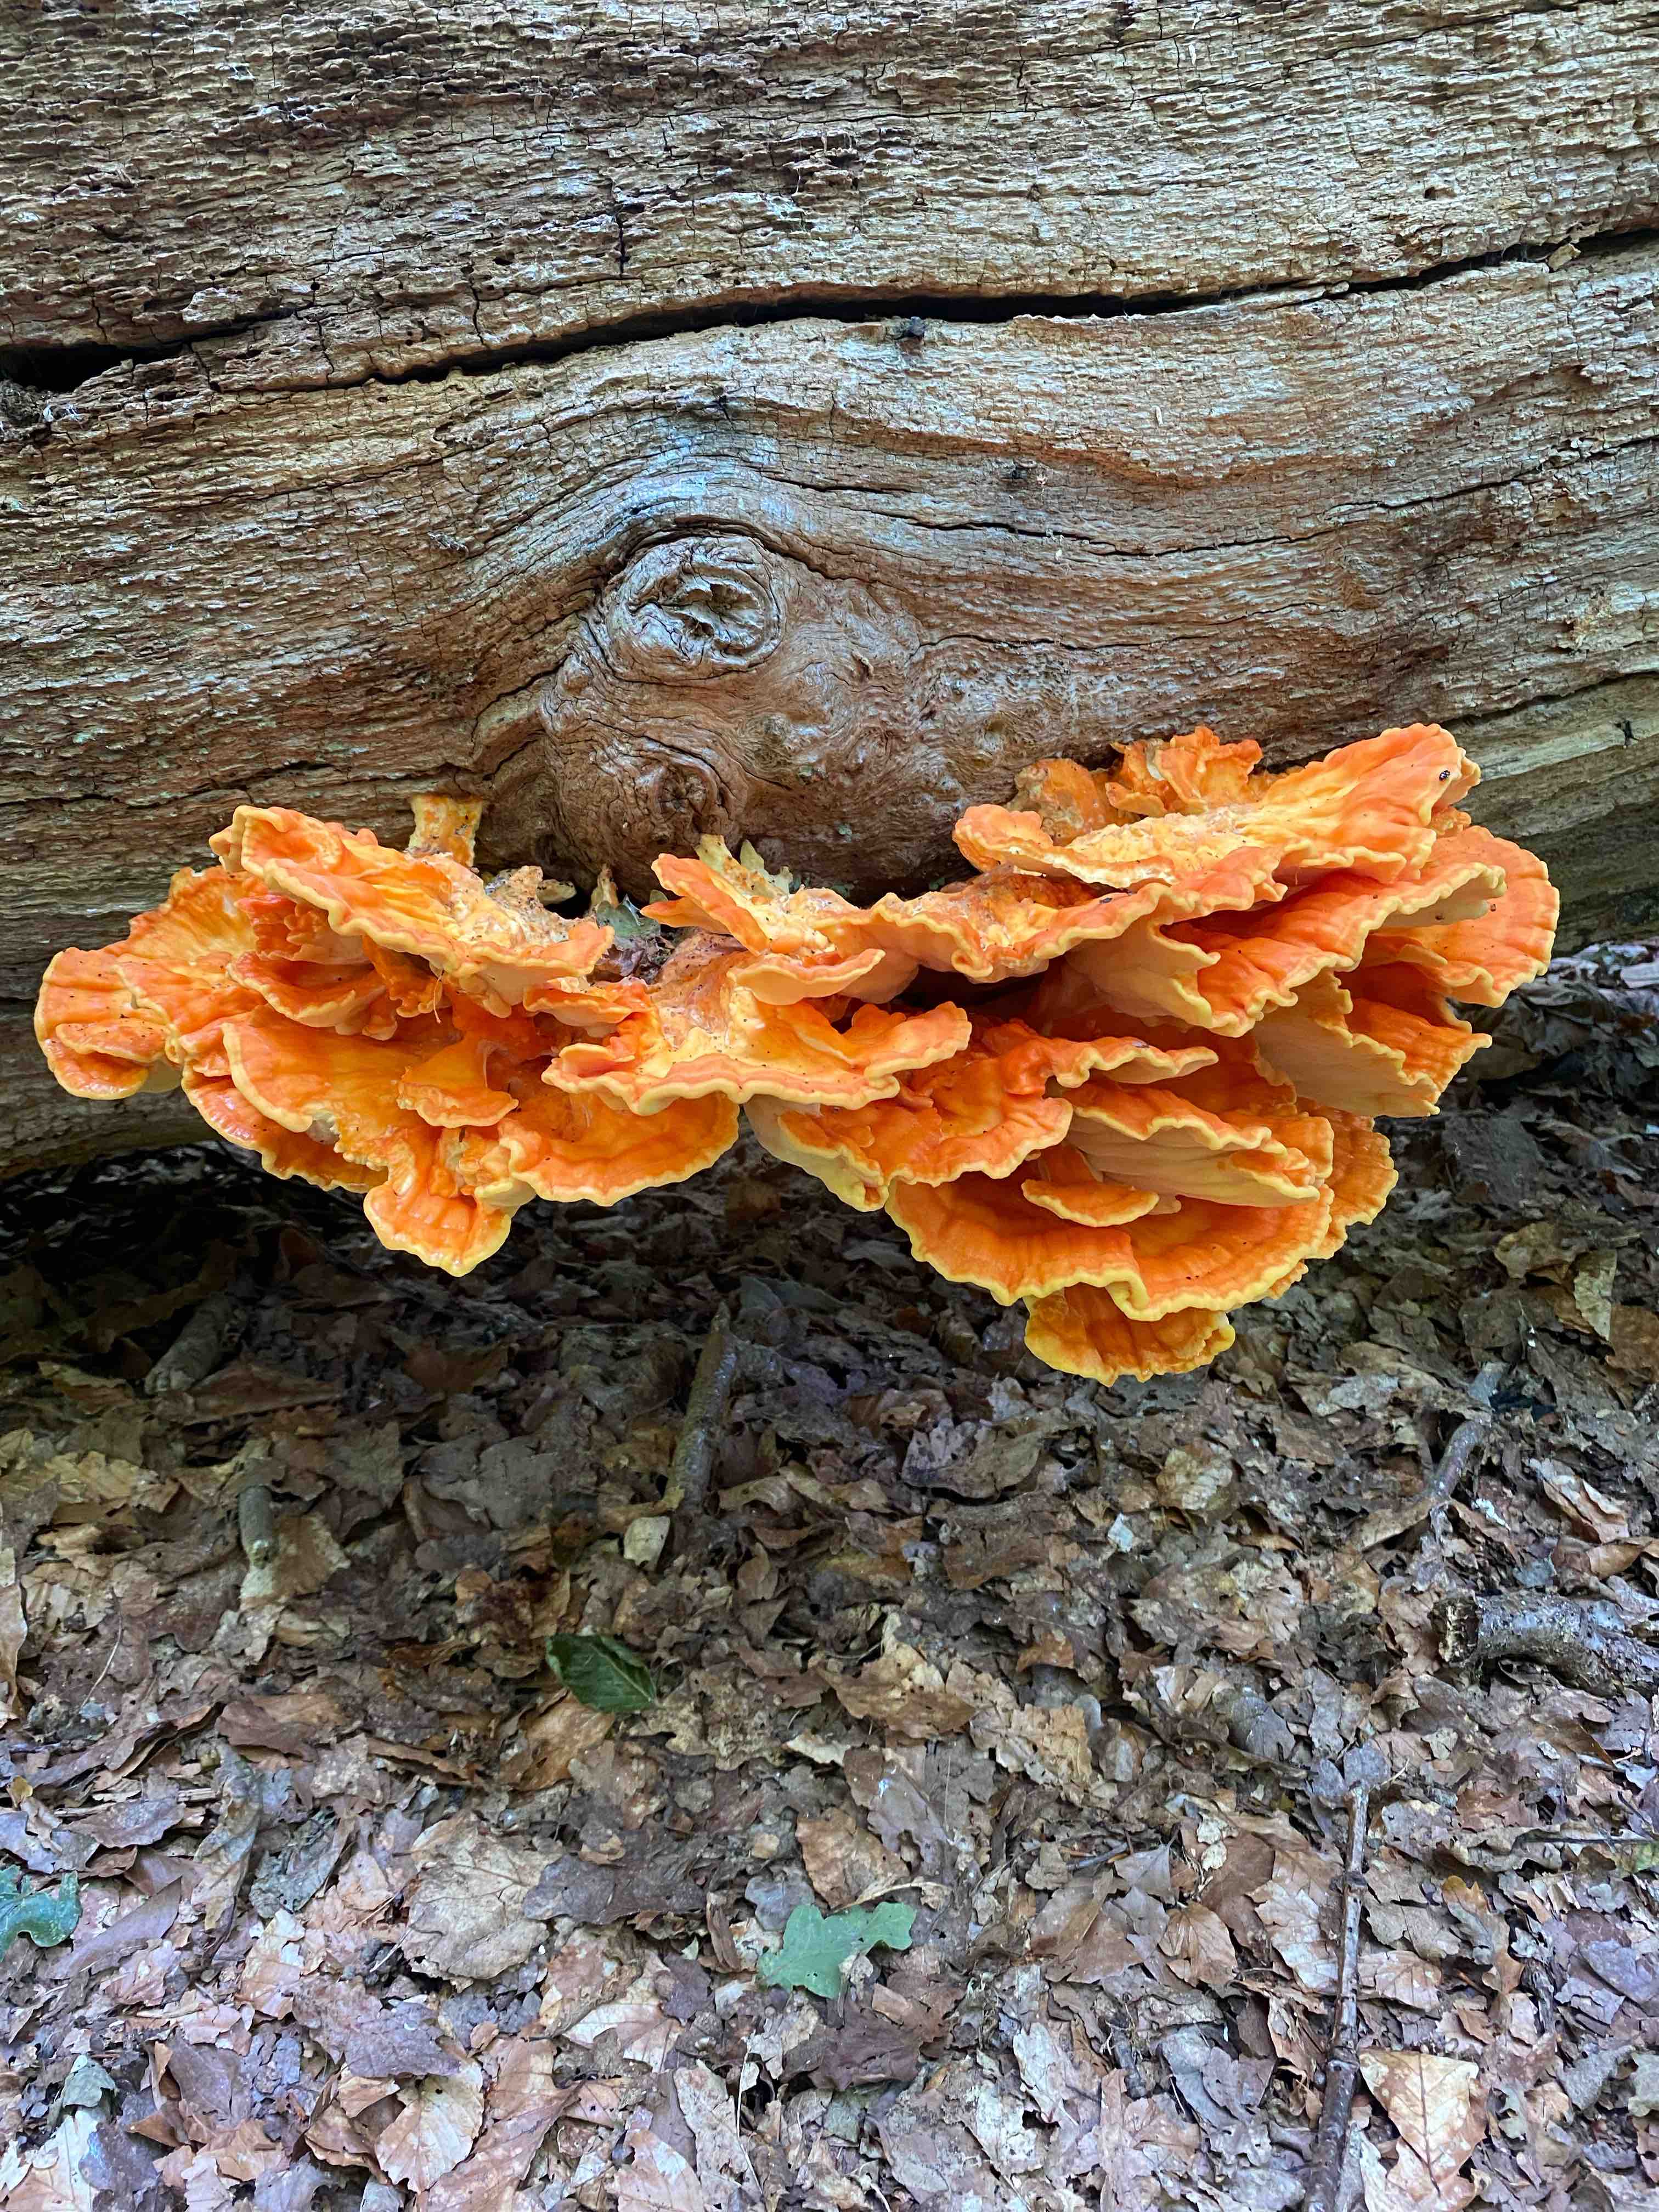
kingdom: Fungi
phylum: Basidiomycota
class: Agaricomycetes
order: Polyporales
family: Laetiporaceae
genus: Laetiporus
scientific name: Laetiporus sulphureus
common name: svovlporesvamp
